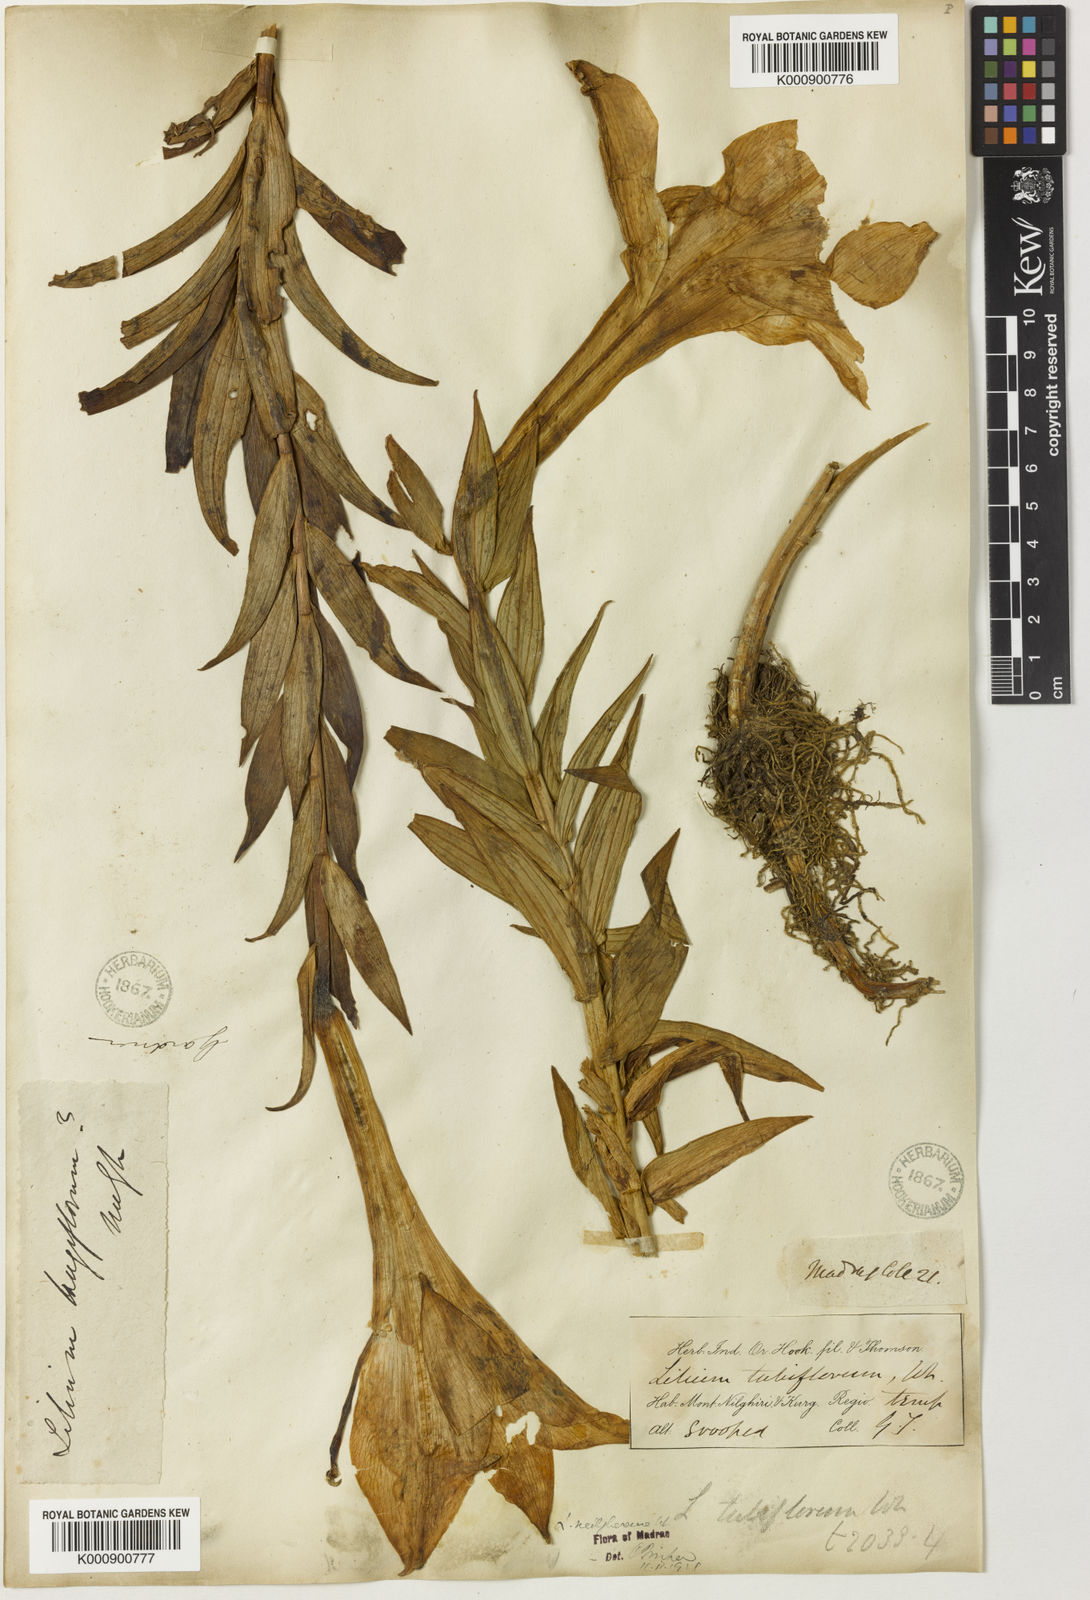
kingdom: Plantae
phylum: Tracheophyta
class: Liliopsida
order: Liliales
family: Liliaceae
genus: Lilium
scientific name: Lilium wallichianum
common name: Wallich's lily
